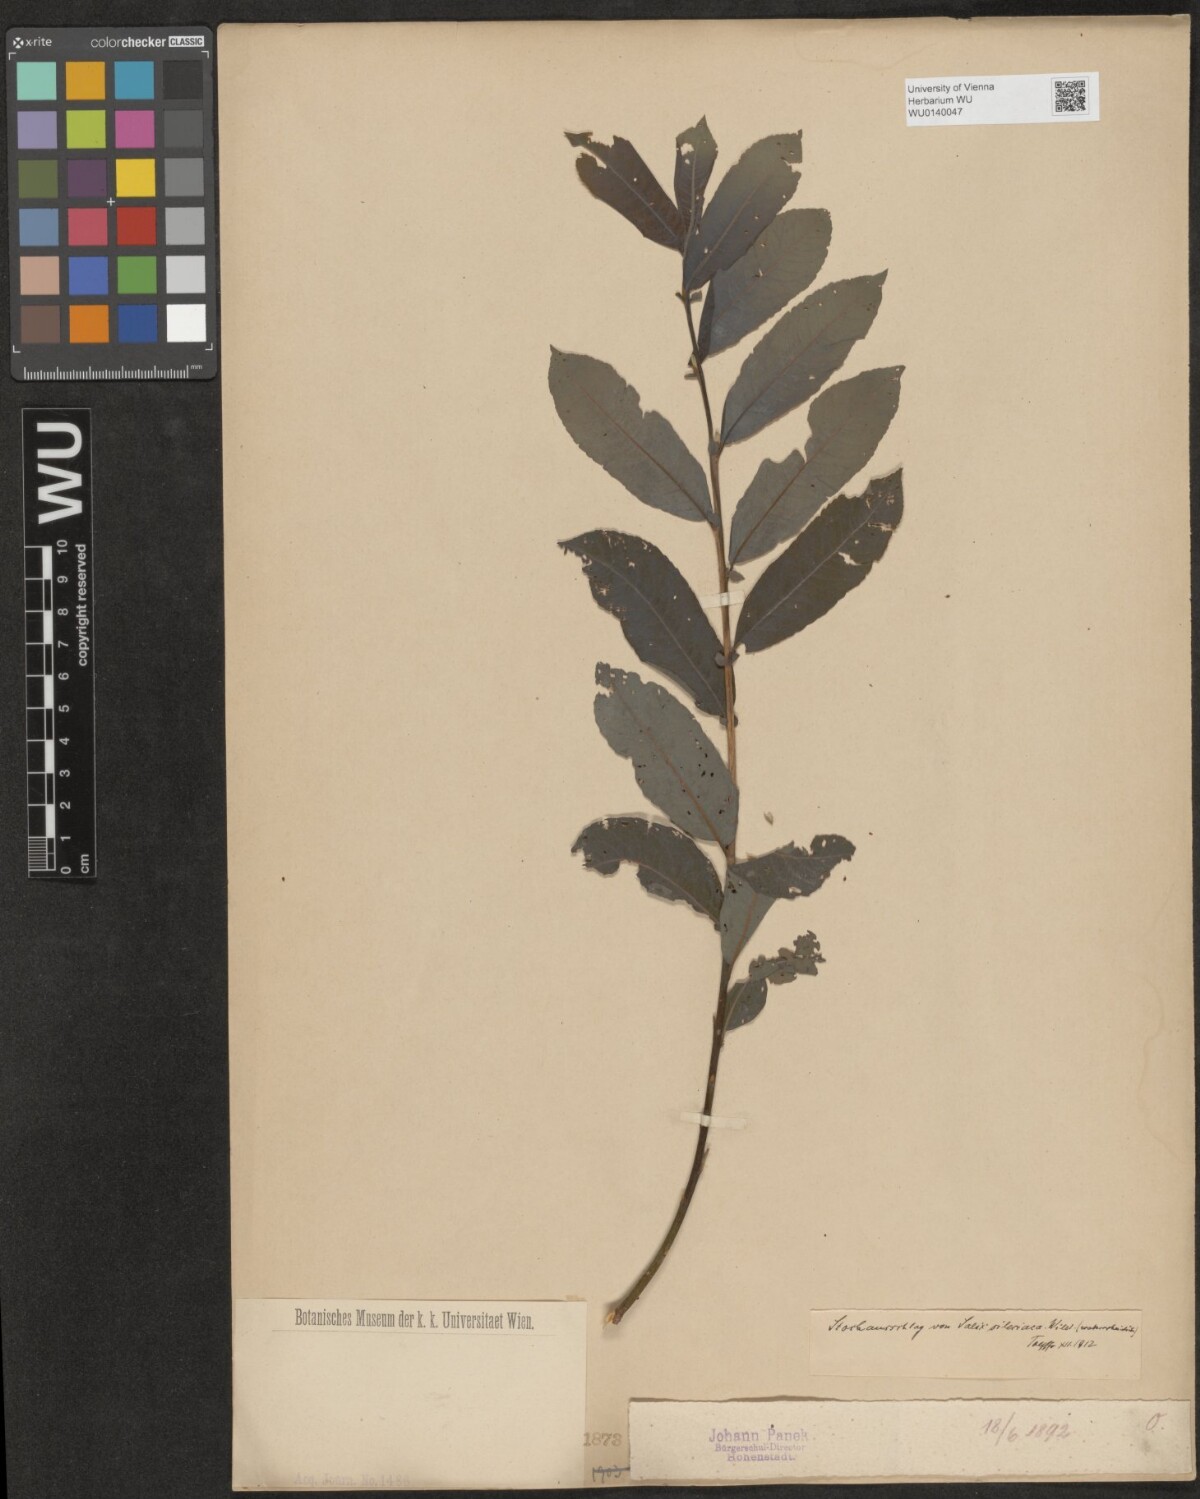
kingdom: Plantae
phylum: Tracheophyta
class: Magnoliopsida
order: Malpighiales
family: Salicaceae
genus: Salix
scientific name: Salix silesiaca
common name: Silesian willow
